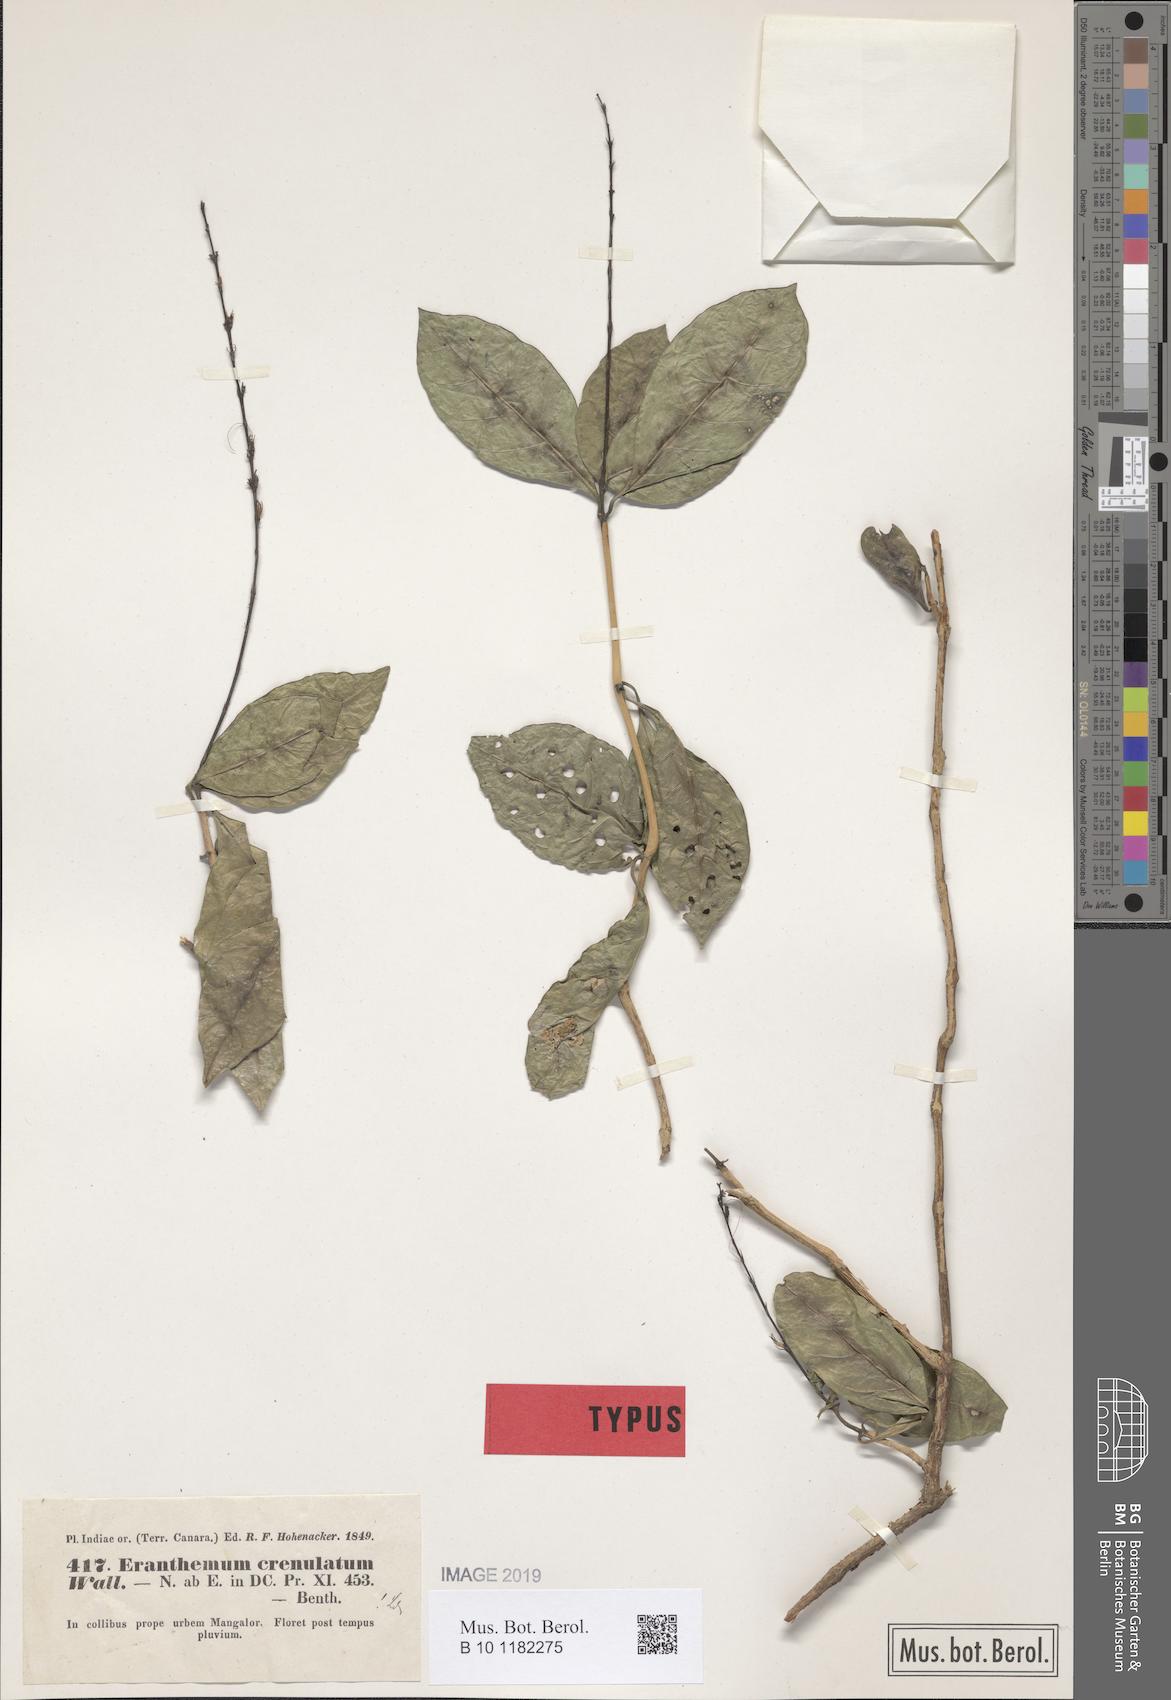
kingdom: Plantae
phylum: Tracheophyta
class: Magnoliopsida
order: Lamiales
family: Acanthaceae
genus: Pseuderanthemum
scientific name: Pseuderanthemum malabaricum
